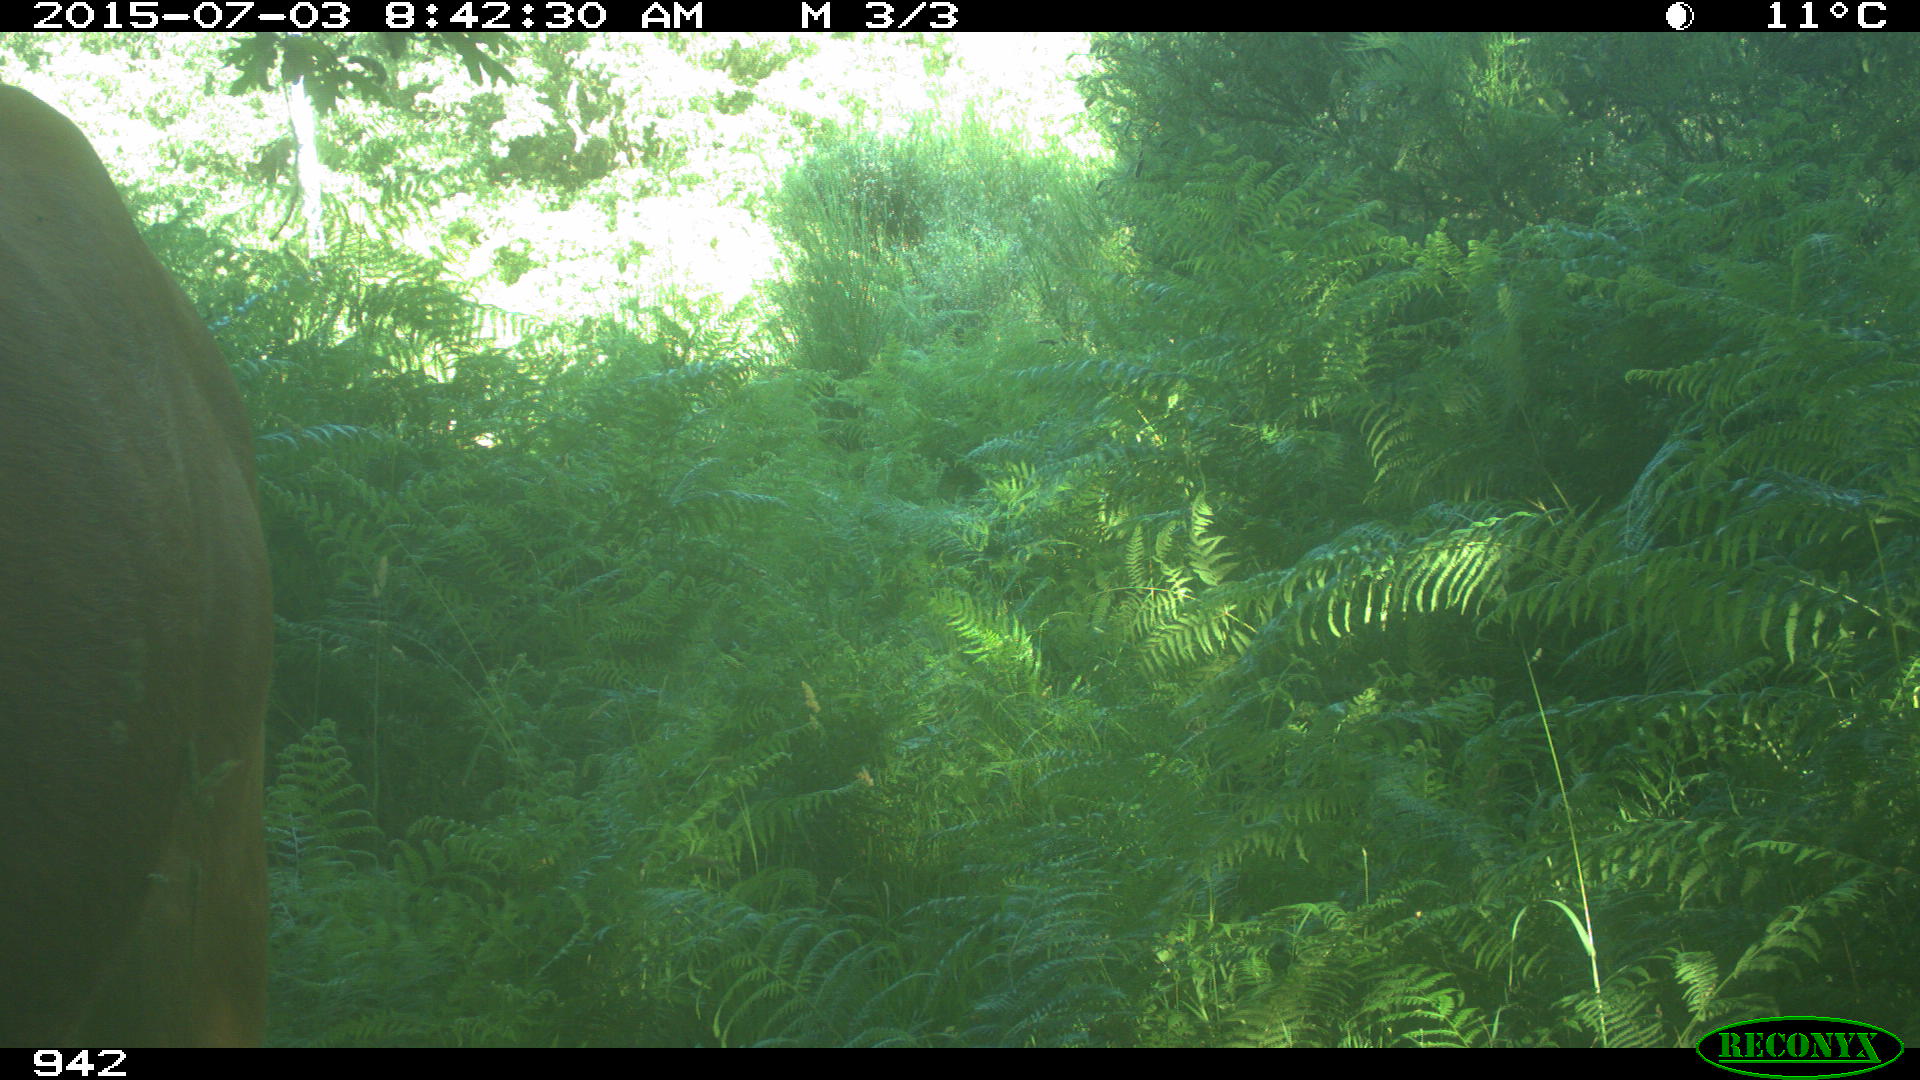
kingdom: Animalia
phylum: Chordata
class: Mammalia
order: Artiodactyla
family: Bovidae
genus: Bos
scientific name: Bos taurus
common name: Domesticated cattle
